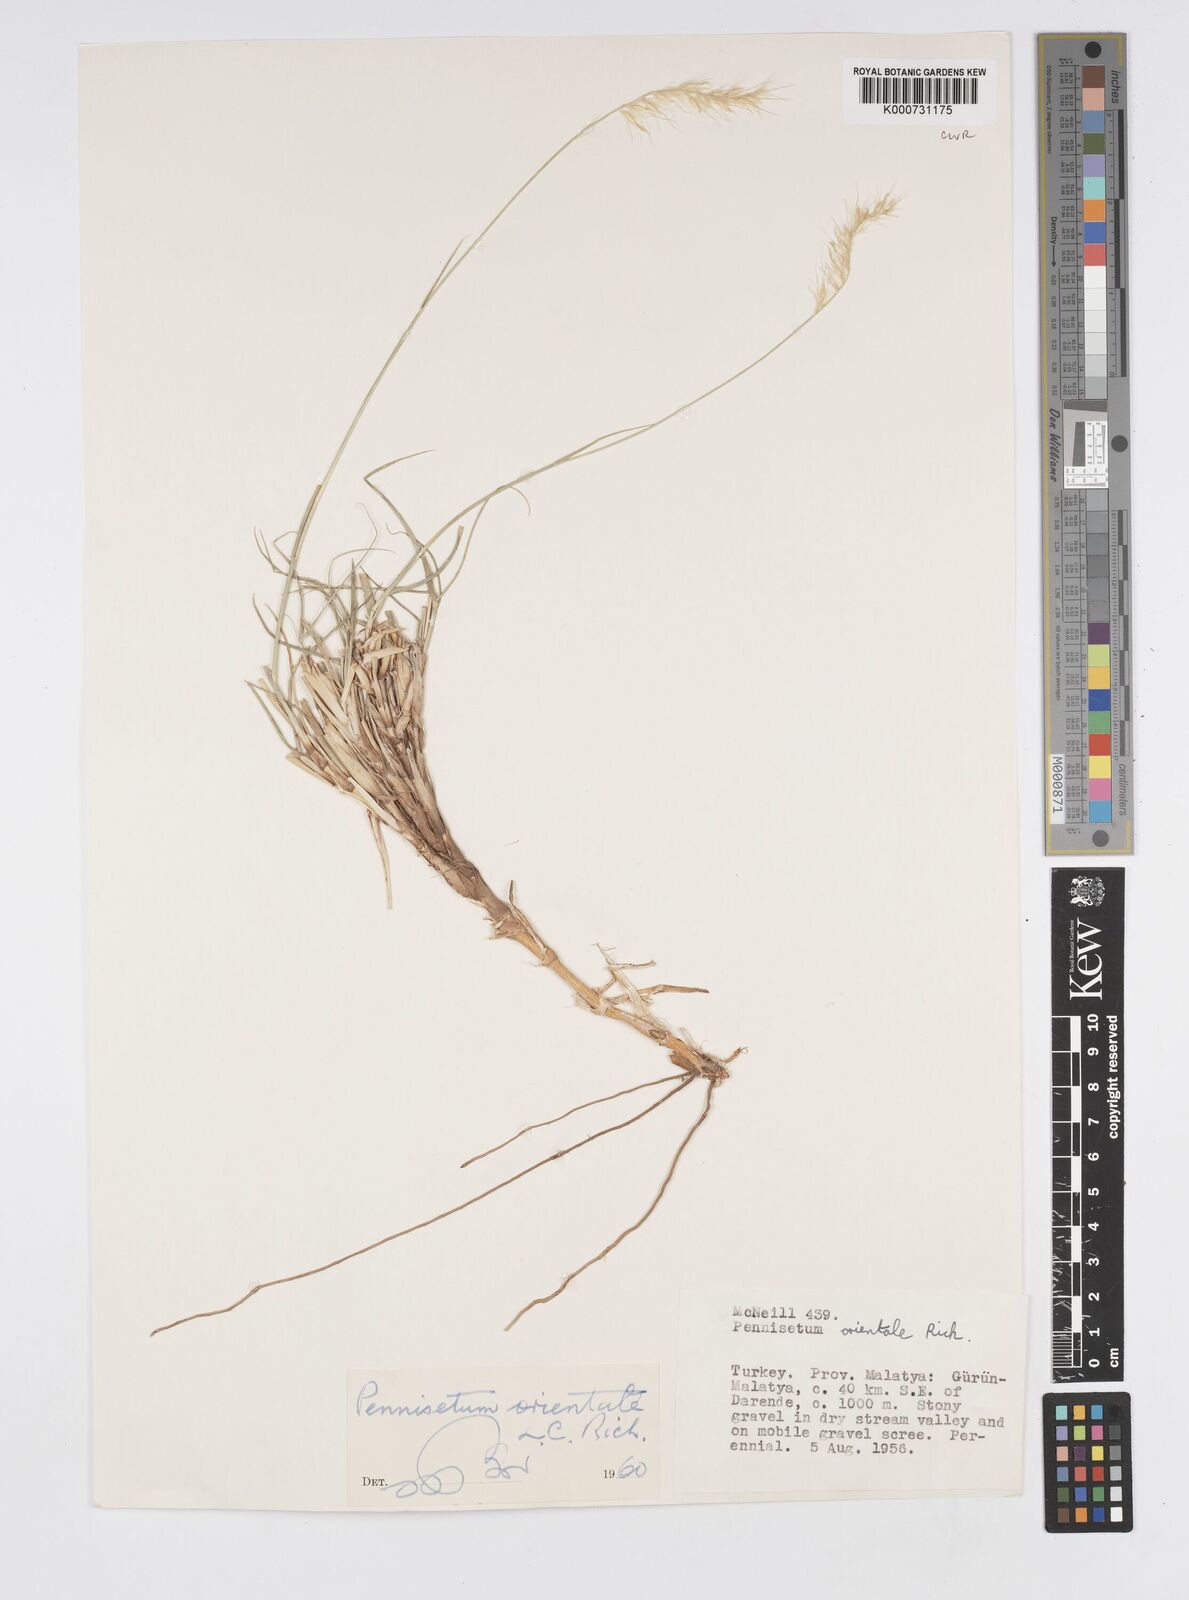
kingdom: Plantae
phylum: Tracheophyta
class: Liliopsida
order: Poales
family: Poaceae
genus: Cenchrus
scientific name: Cenchrus orientalis
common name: Oriental fountain grass
